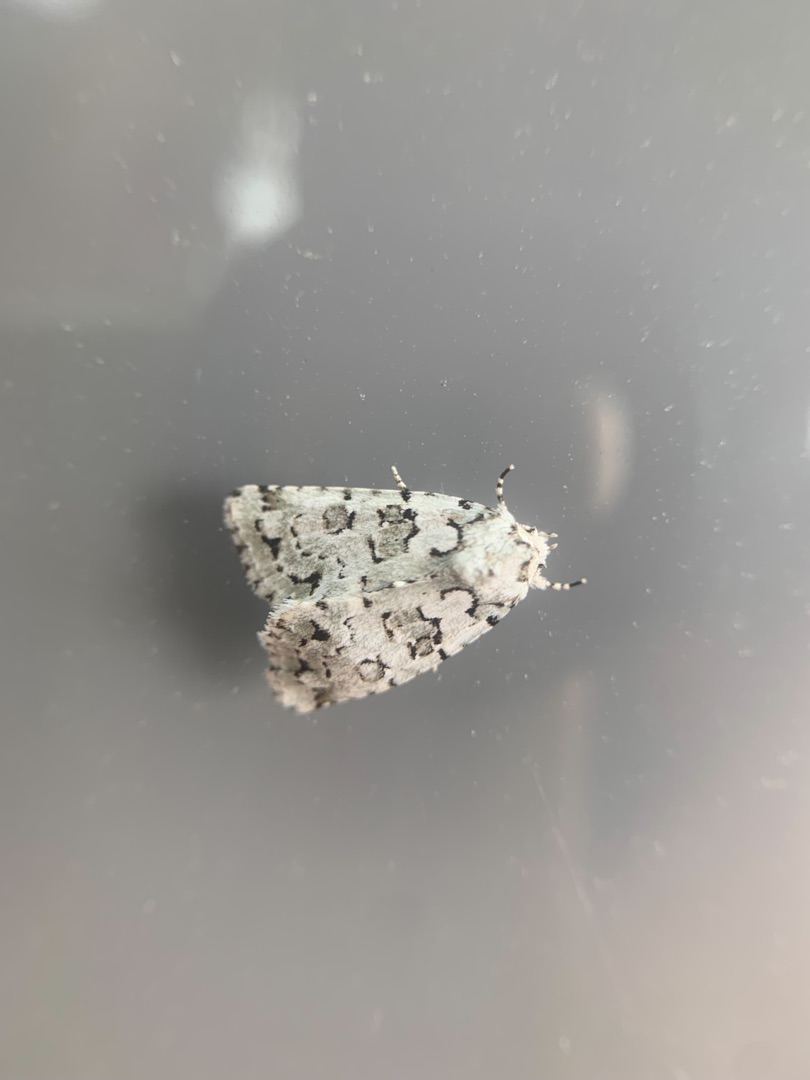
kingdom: Animalia
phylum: Arthropoda
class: Insecta
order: Lepidoptera
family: Noctuidae
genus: Nyctobrya
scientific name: Nyctobrya muralis
